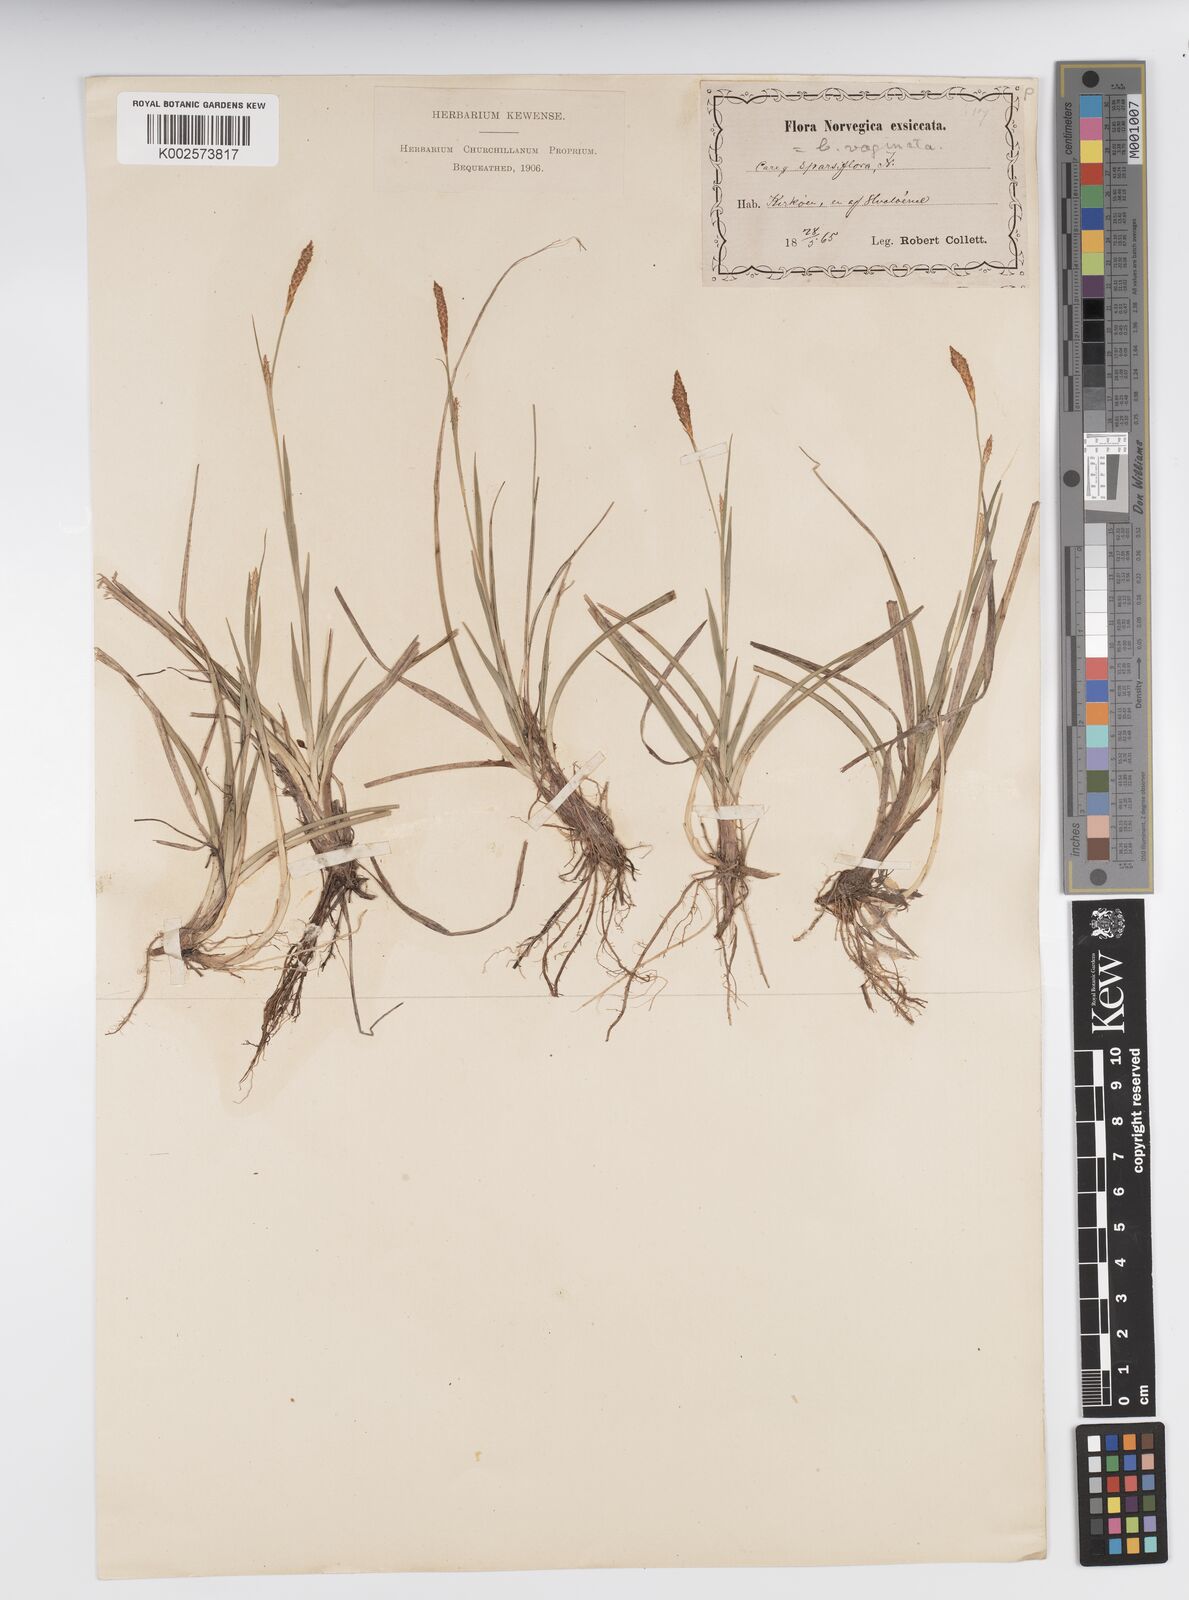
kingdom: Plantae
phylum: Tracheophyta
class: Liliopsida
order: Poales
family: Cyperaceae
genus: Carex
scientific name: Carex vaginata
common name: Sheathed sedge
